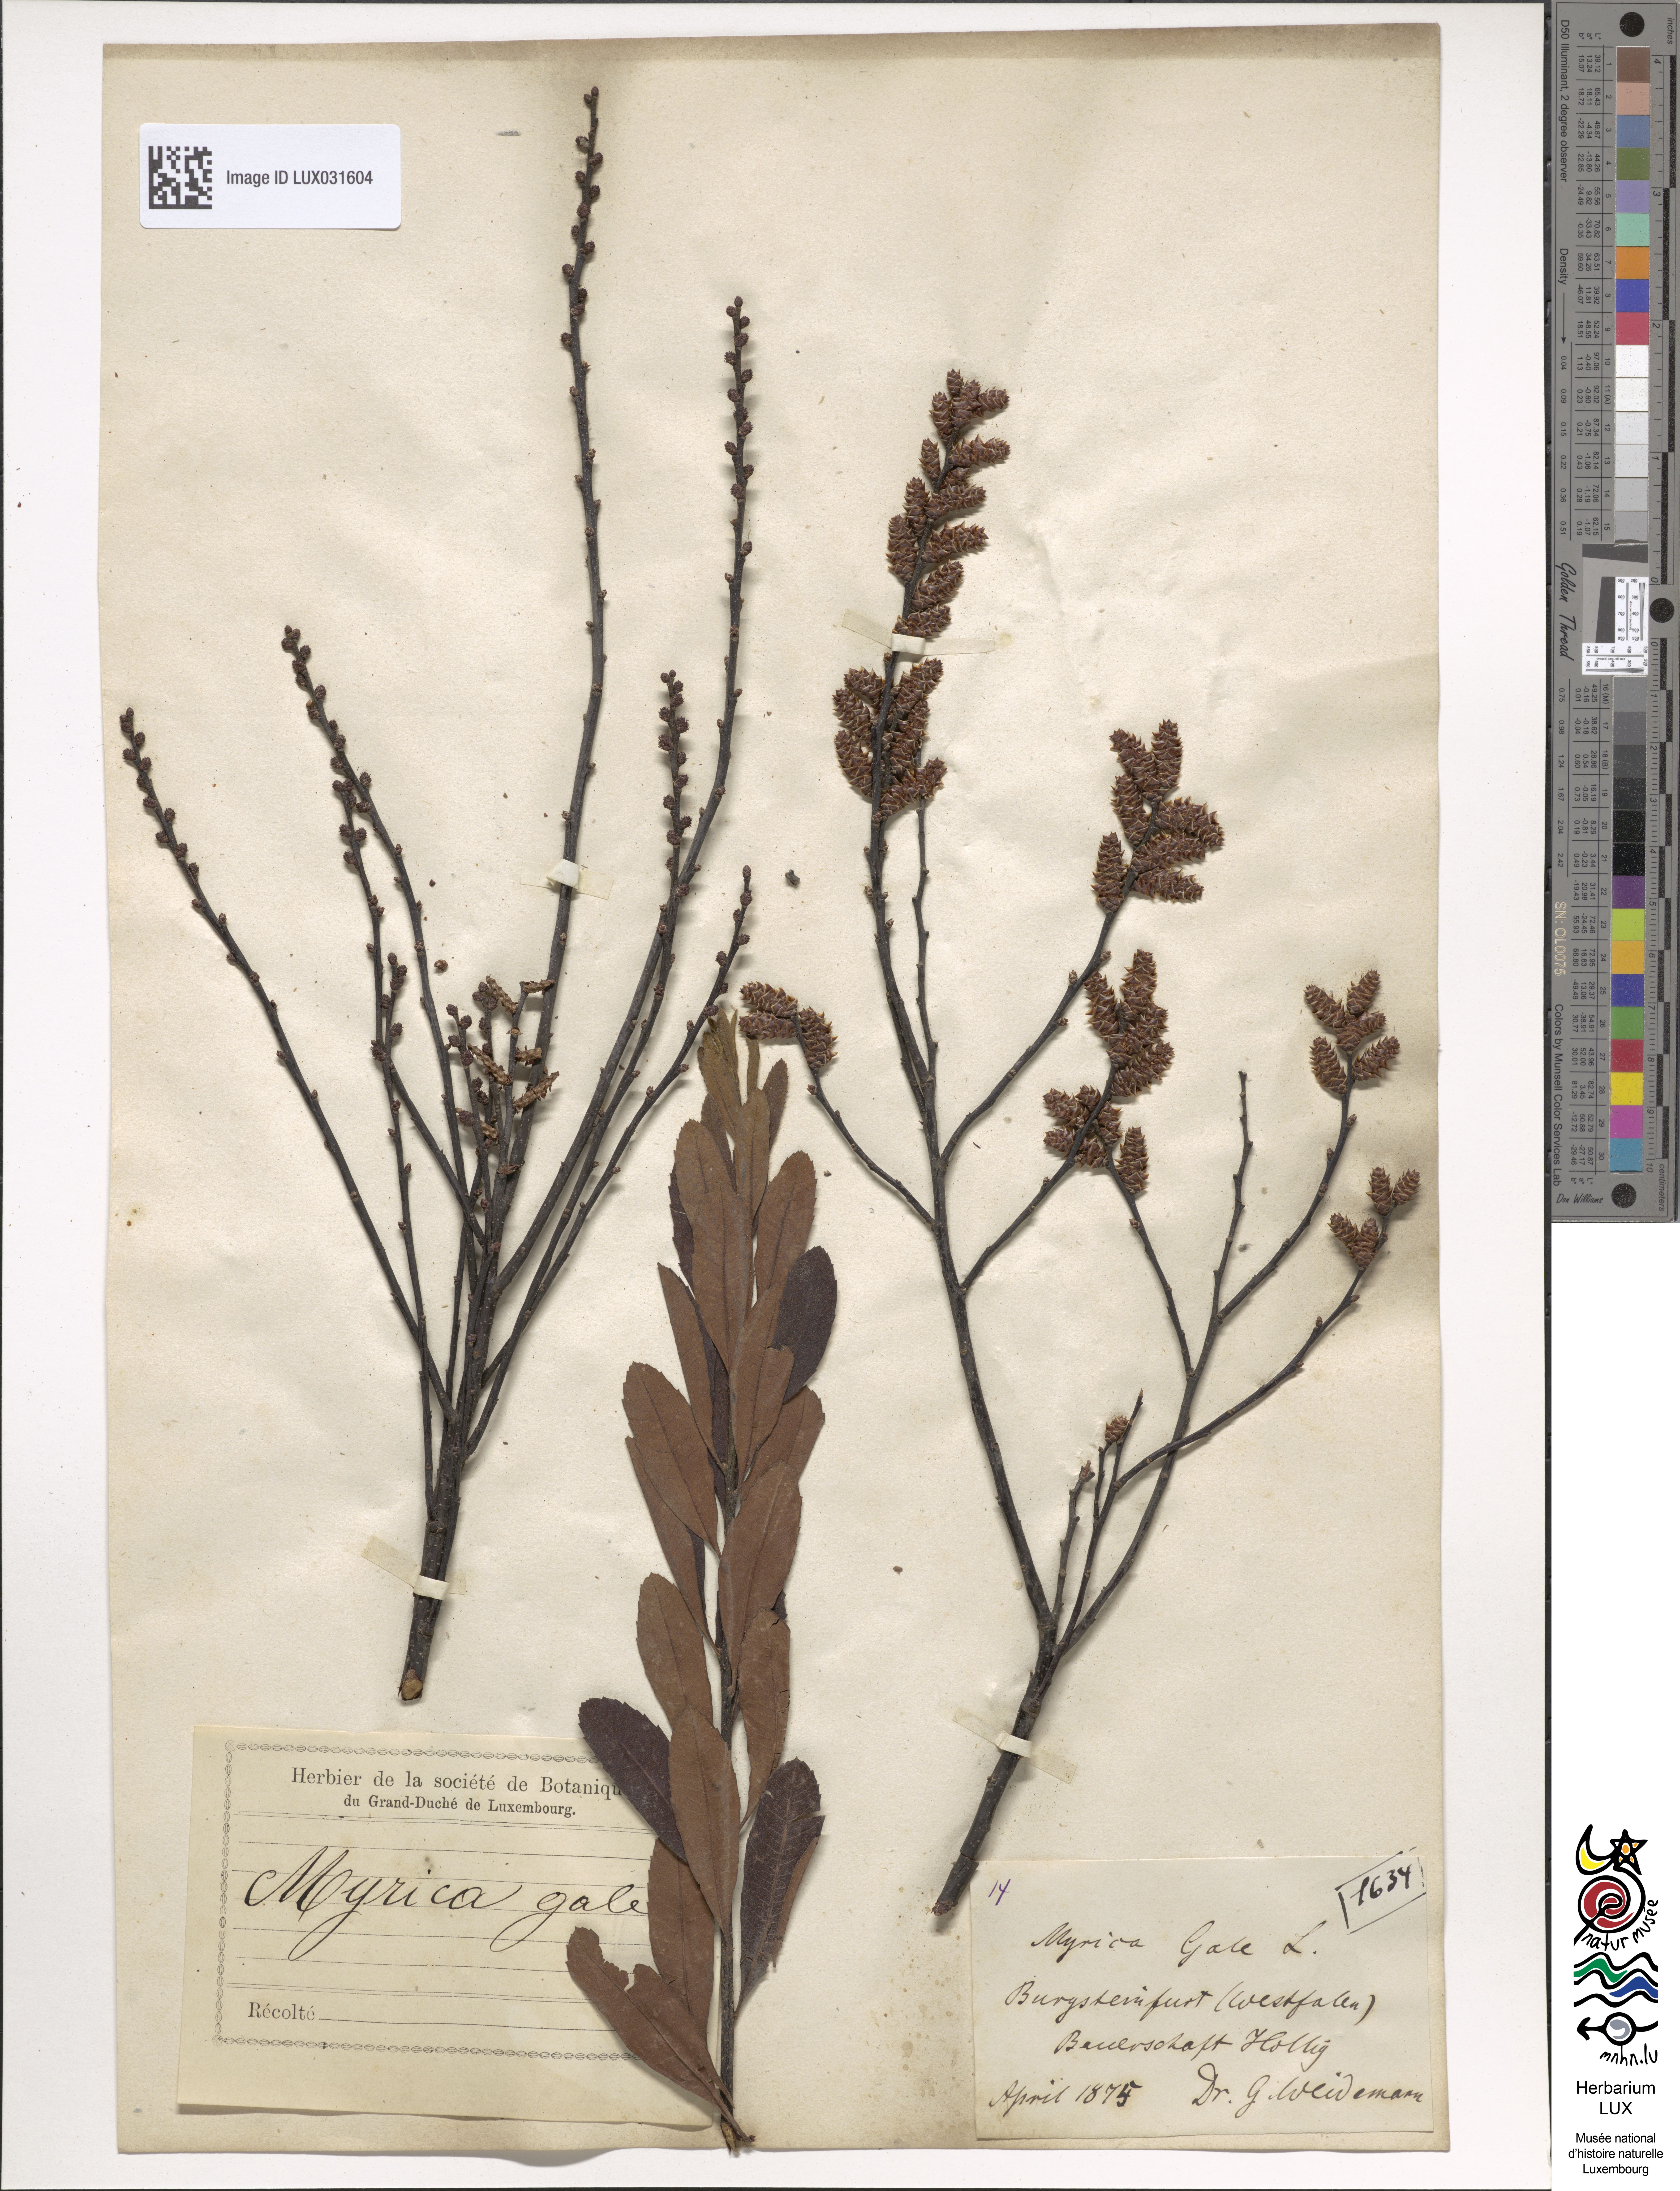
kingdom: Plantae
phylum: Tracheophyta
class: Magnoliopsida
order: Fagales
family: Myricaceae
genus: Myrica
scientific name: Myrica gale
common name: Sweet gale
